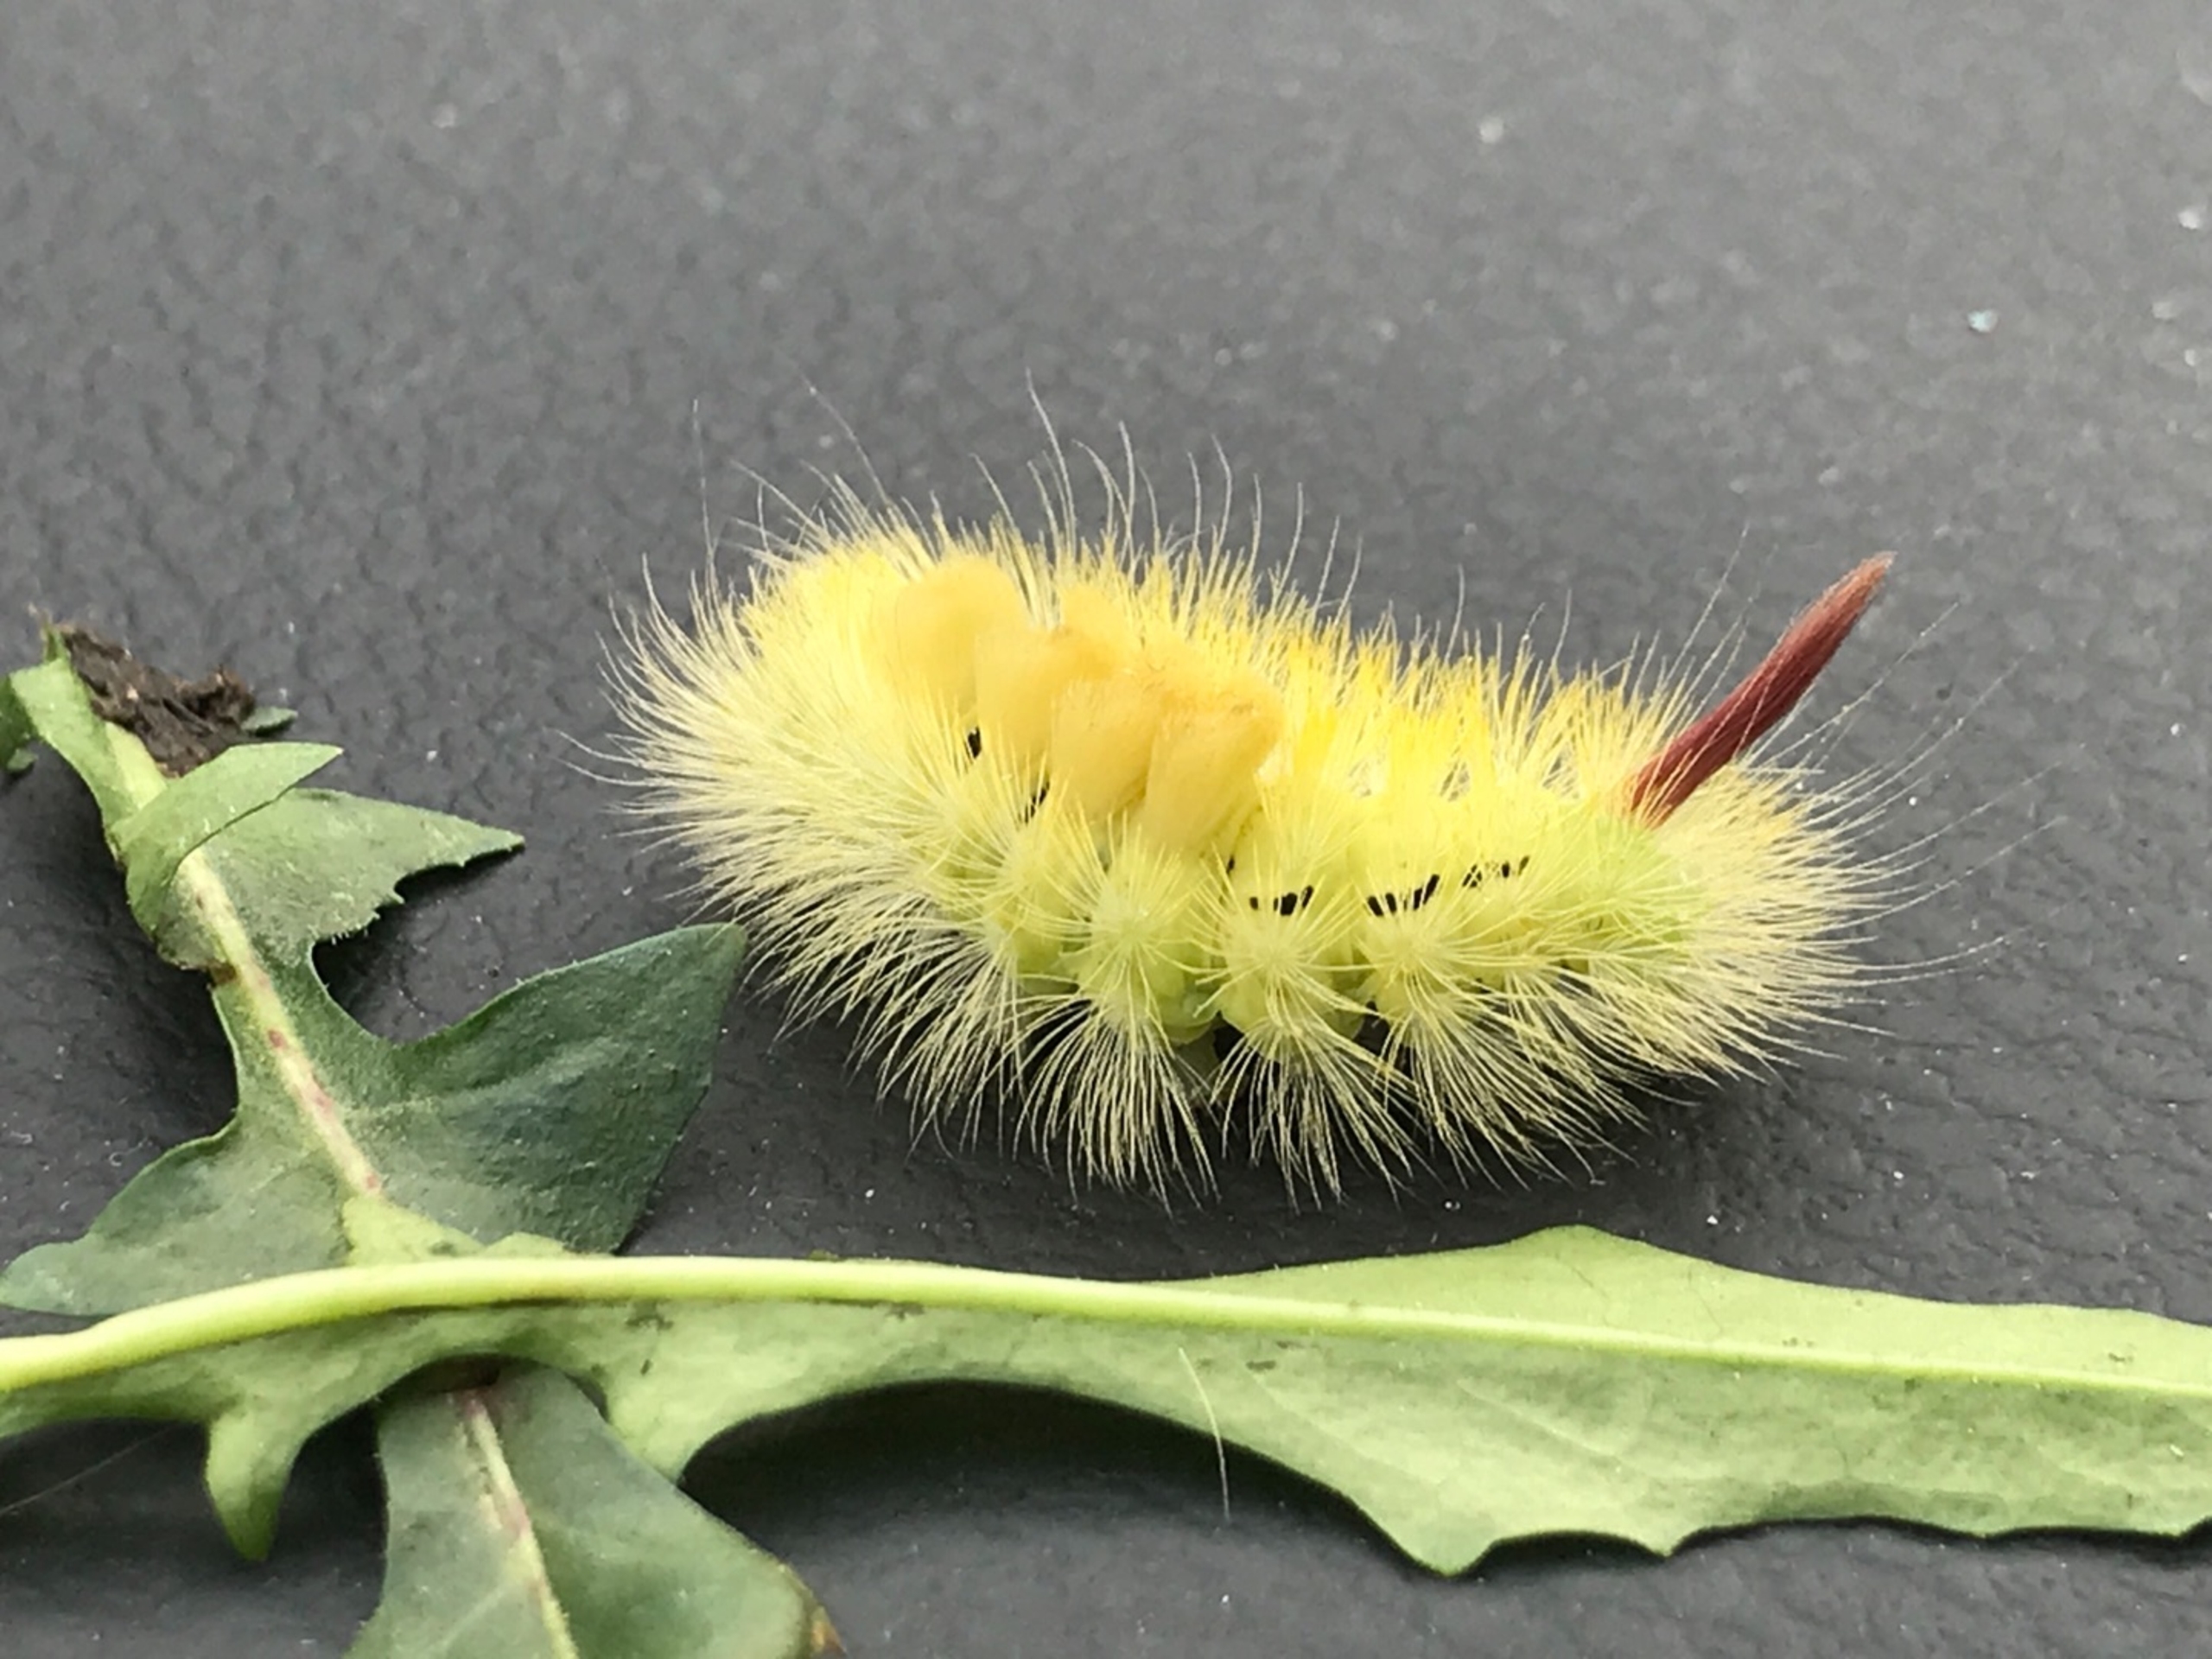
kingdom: Animalia
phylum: Arthropoda
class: Insecta
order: Lepidoptera
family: Erebidae
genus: Calliteara
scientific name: Calliteara pudibunda
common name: Bøgenonne
